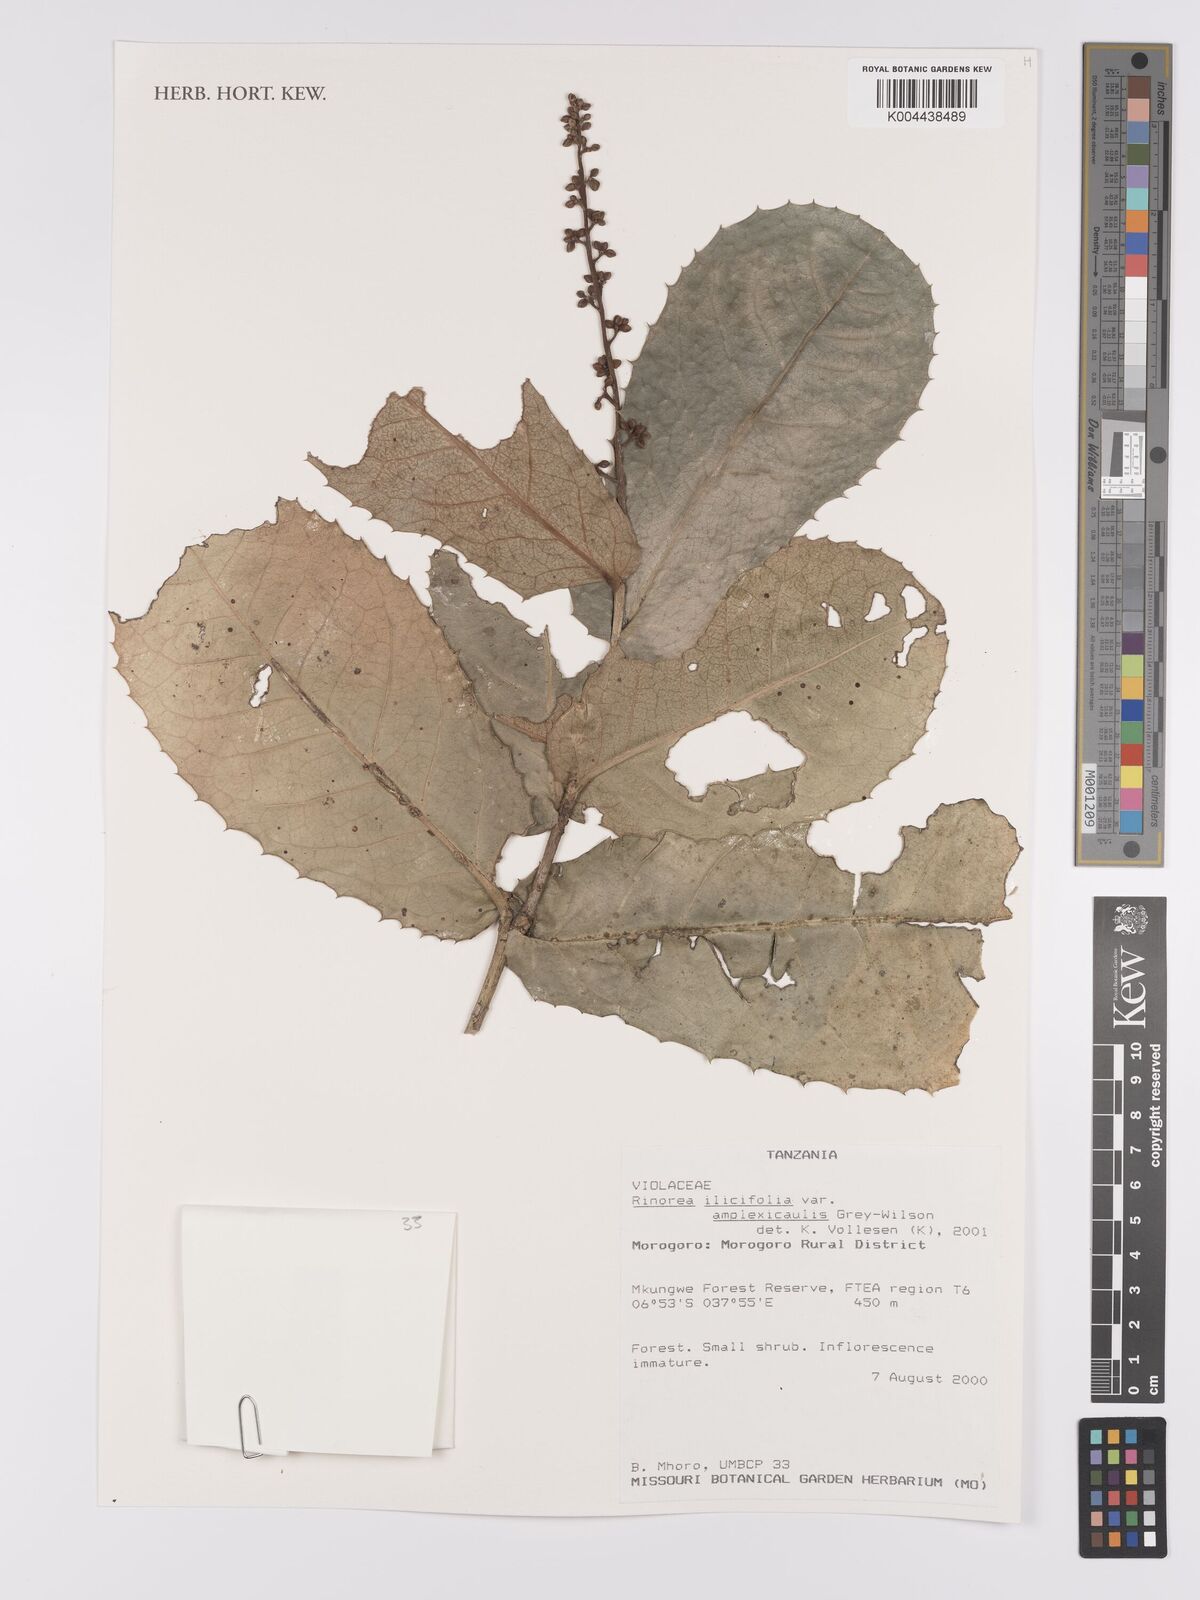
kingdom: Plantae
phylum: Tracheophyta
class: Magnoliopsida
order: Malpighiales
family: Violaceae
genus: Rinorea
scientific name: Rinorea ilicifolia
